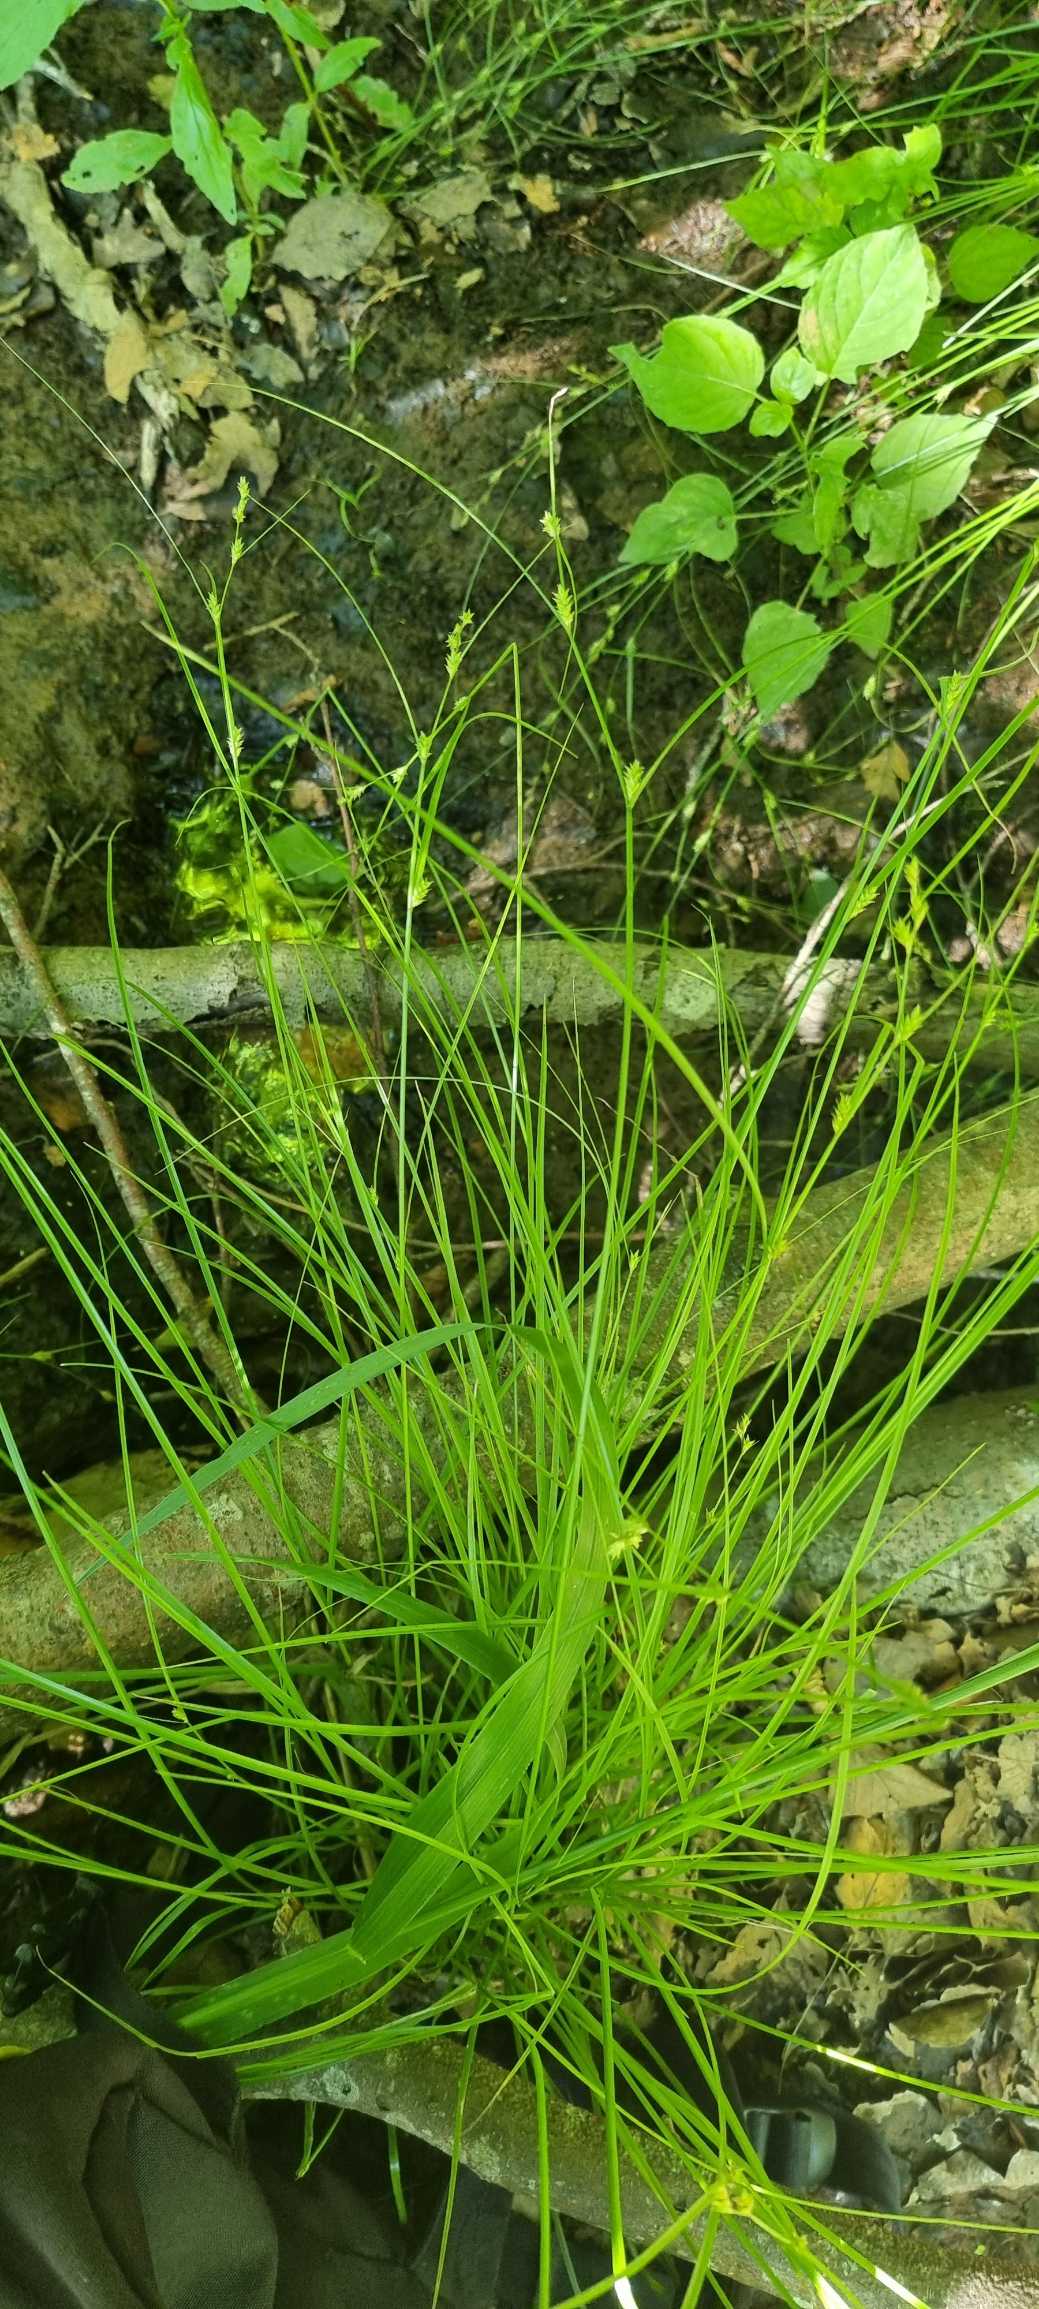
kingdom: Plantae
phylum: Tracheophyta
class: Liliopsida
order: Poales
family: Cyperaceae
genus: Carex
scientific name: Carex remota
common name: Akselblomstret star
